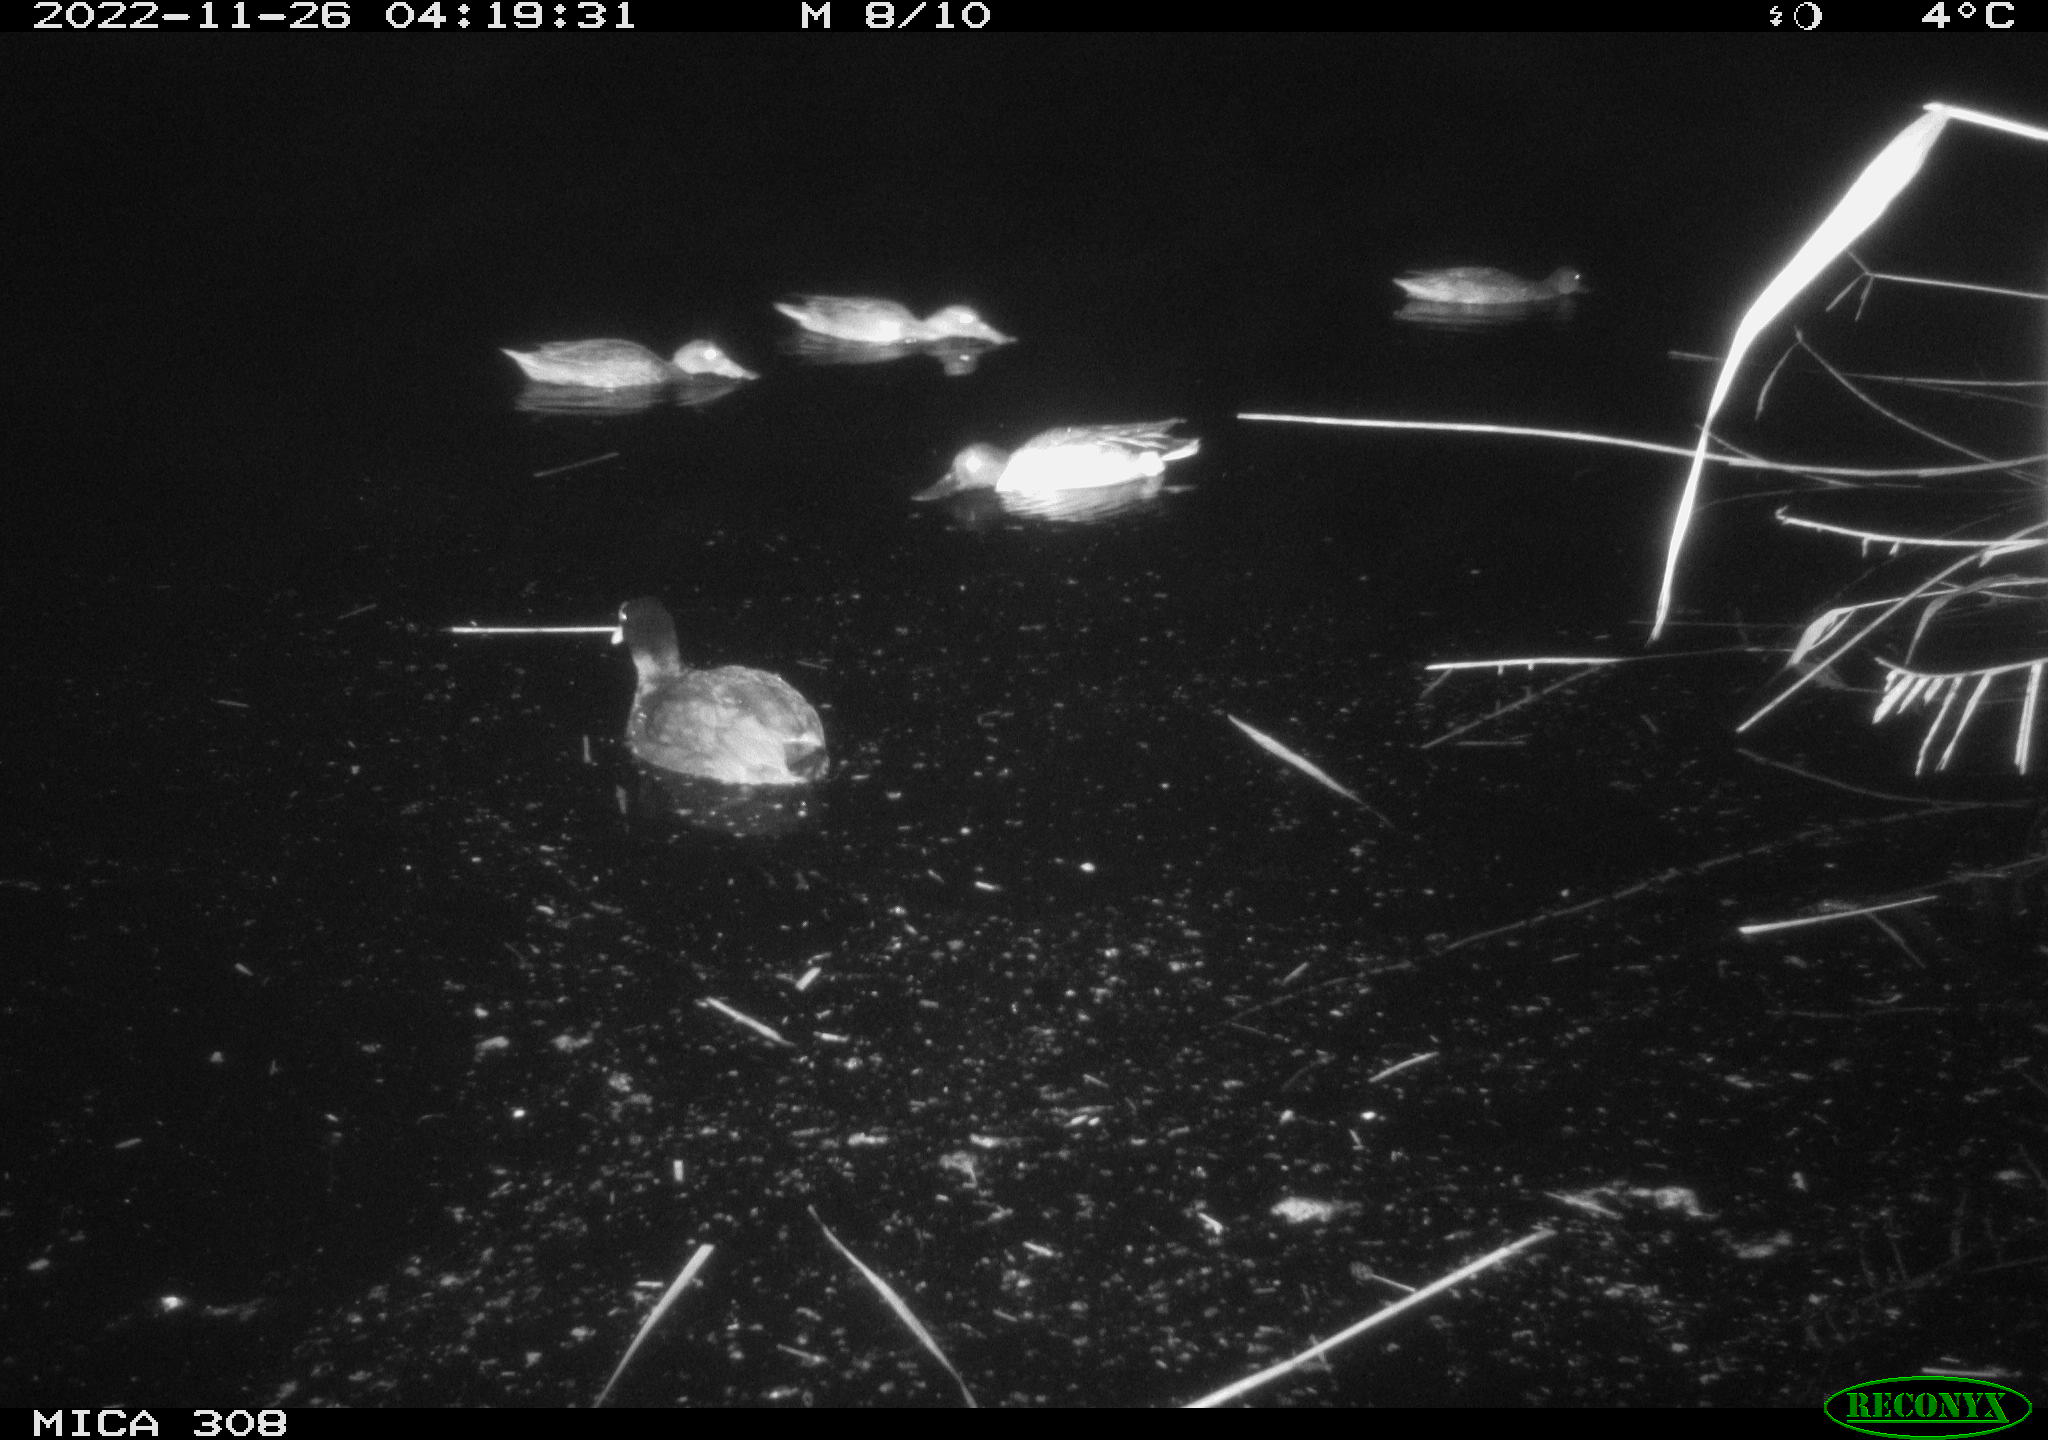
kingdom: Animalia
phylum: Chordata
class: Aves
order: Anseriformes
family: Anatidae
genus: Anas
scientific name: Anas
